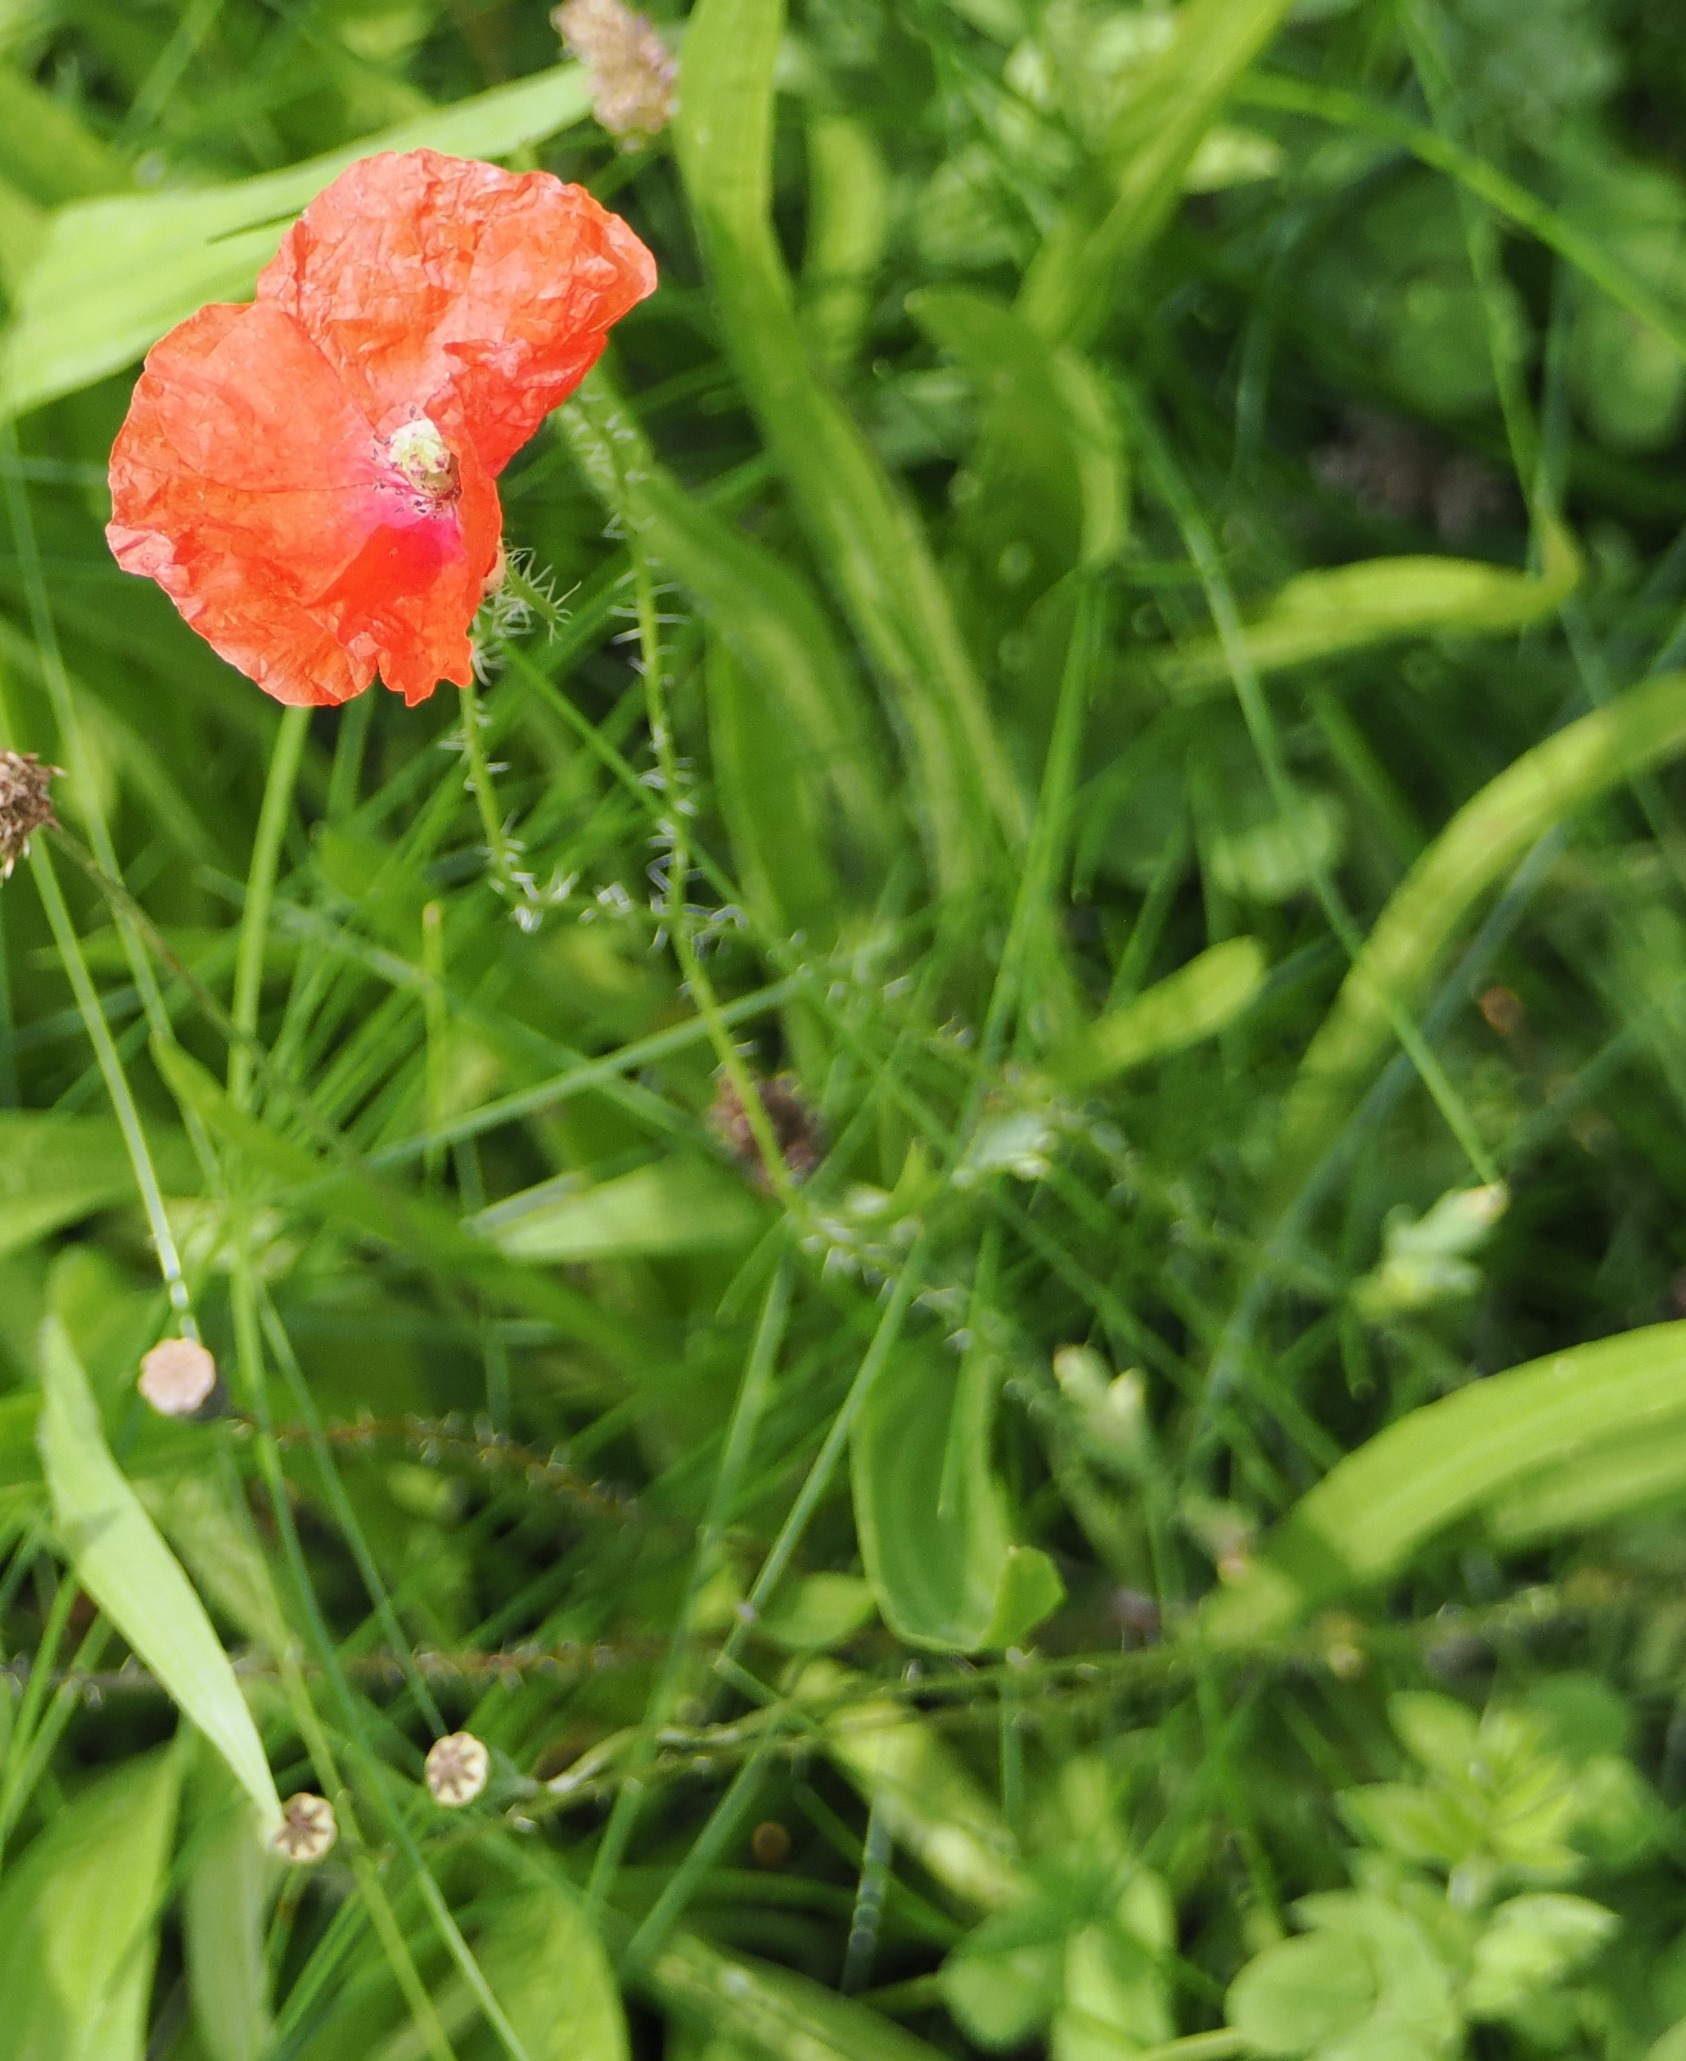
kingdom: Plantae
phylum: Tracheophyta
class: Magnoliopsida
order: Ranunculales
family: Papaveraceae
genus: Papaver
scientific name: Papaver rhoeas
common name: Korn-valmue
